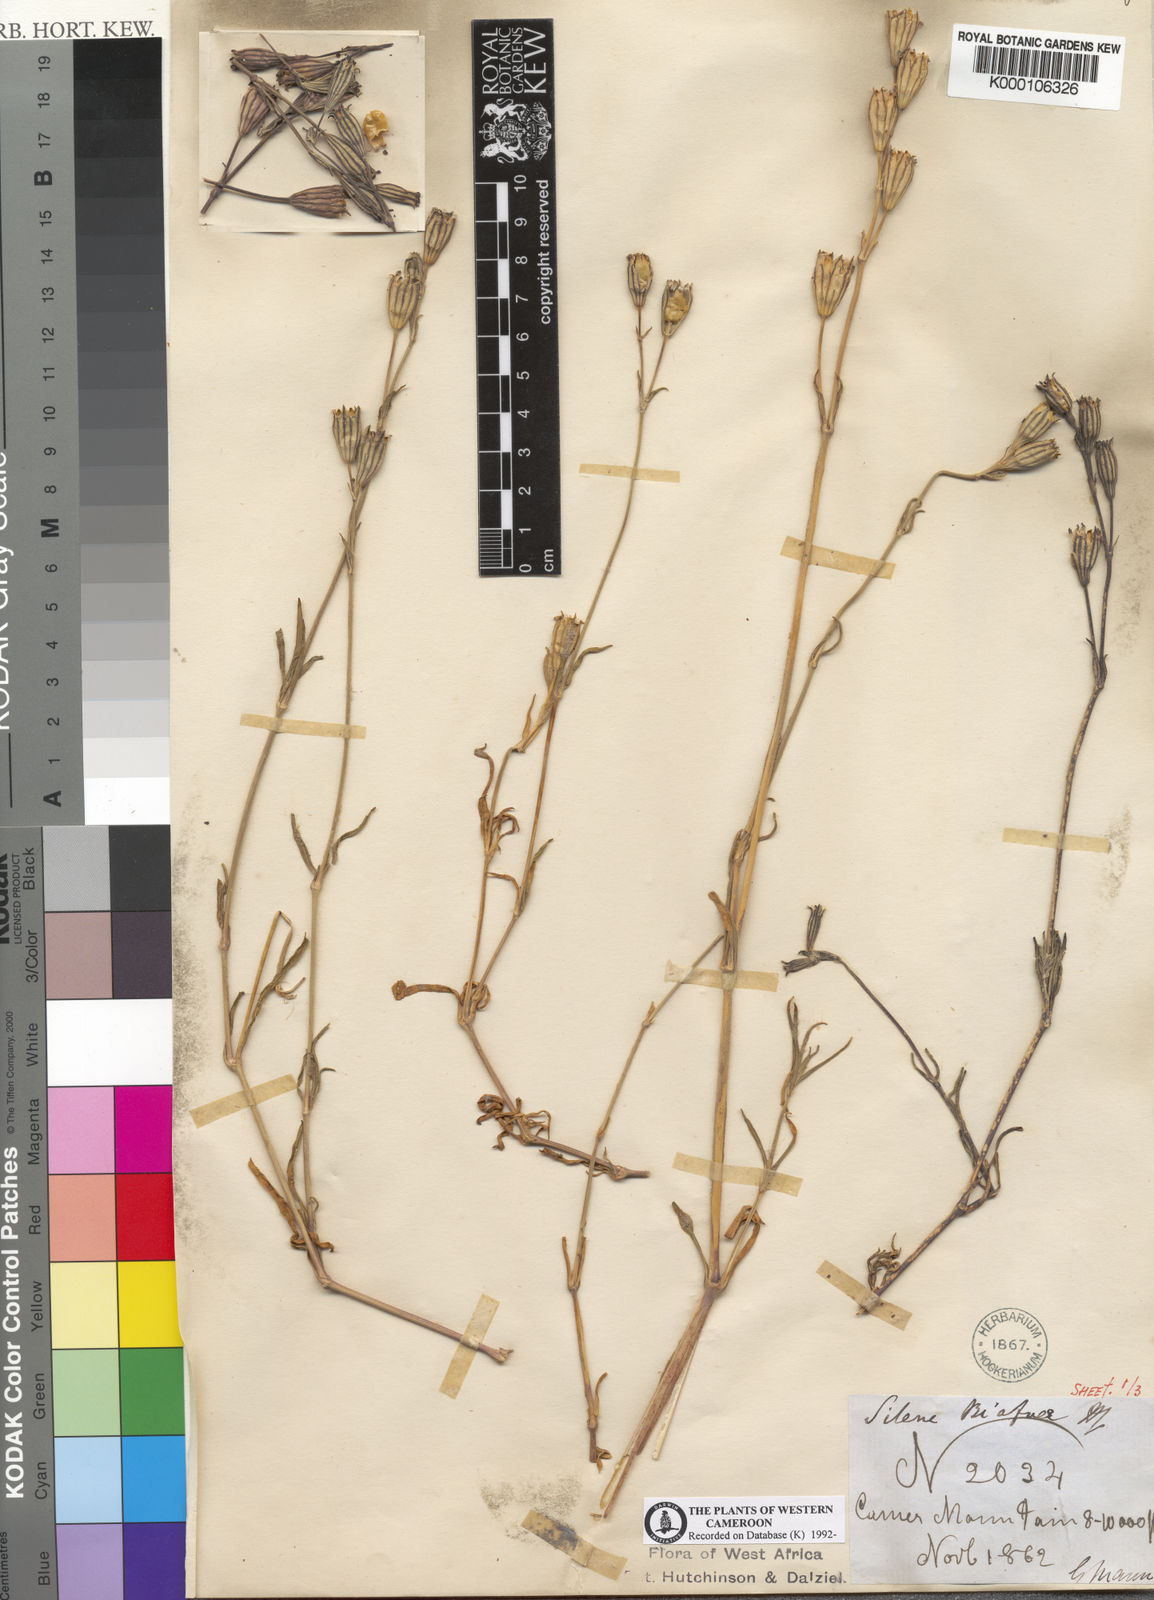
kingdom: Plantae
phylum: Tracheophyta
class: Magnoliopsida
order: Caryophyllales
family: Caryophyllaceae
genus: Silene
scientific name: Silene biafrae
